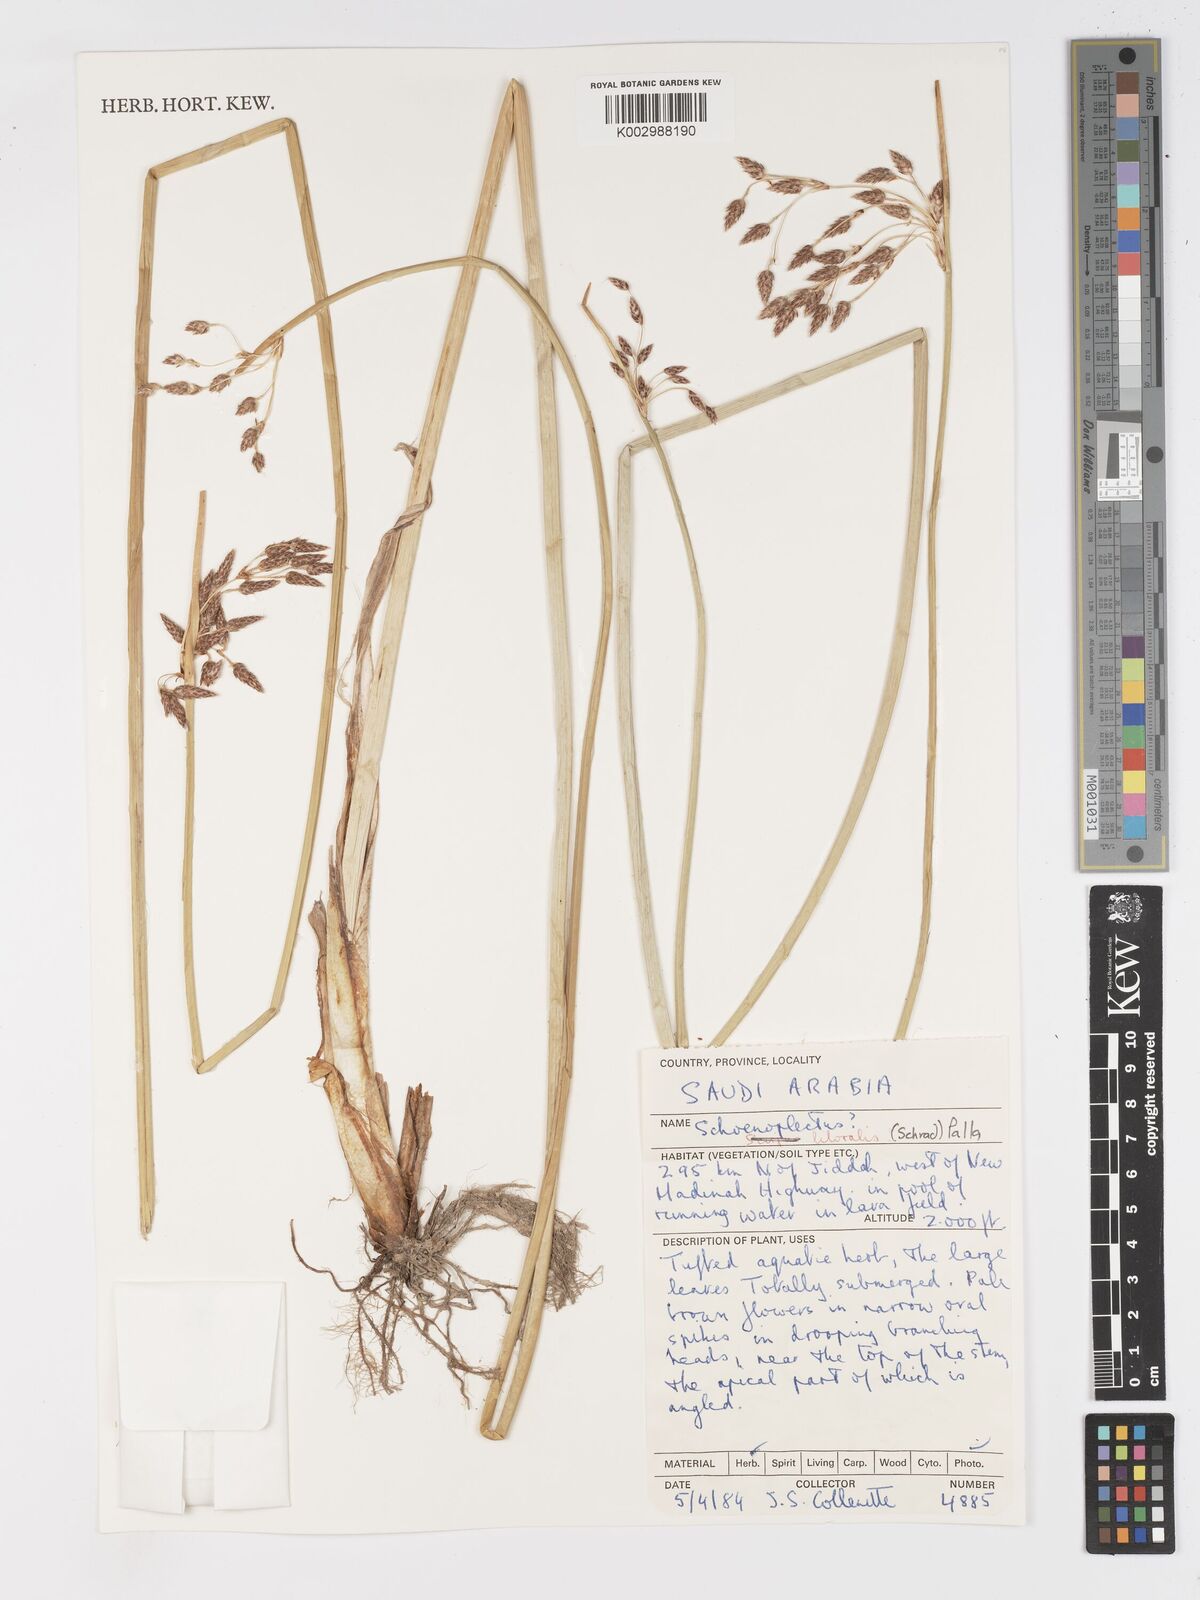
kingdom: Plantae
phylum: Tracheophyta
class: Liliopsida
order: Poales
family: Cyperaceae
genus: Schoenoplectus
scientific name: Schoenoplectus litoralis
